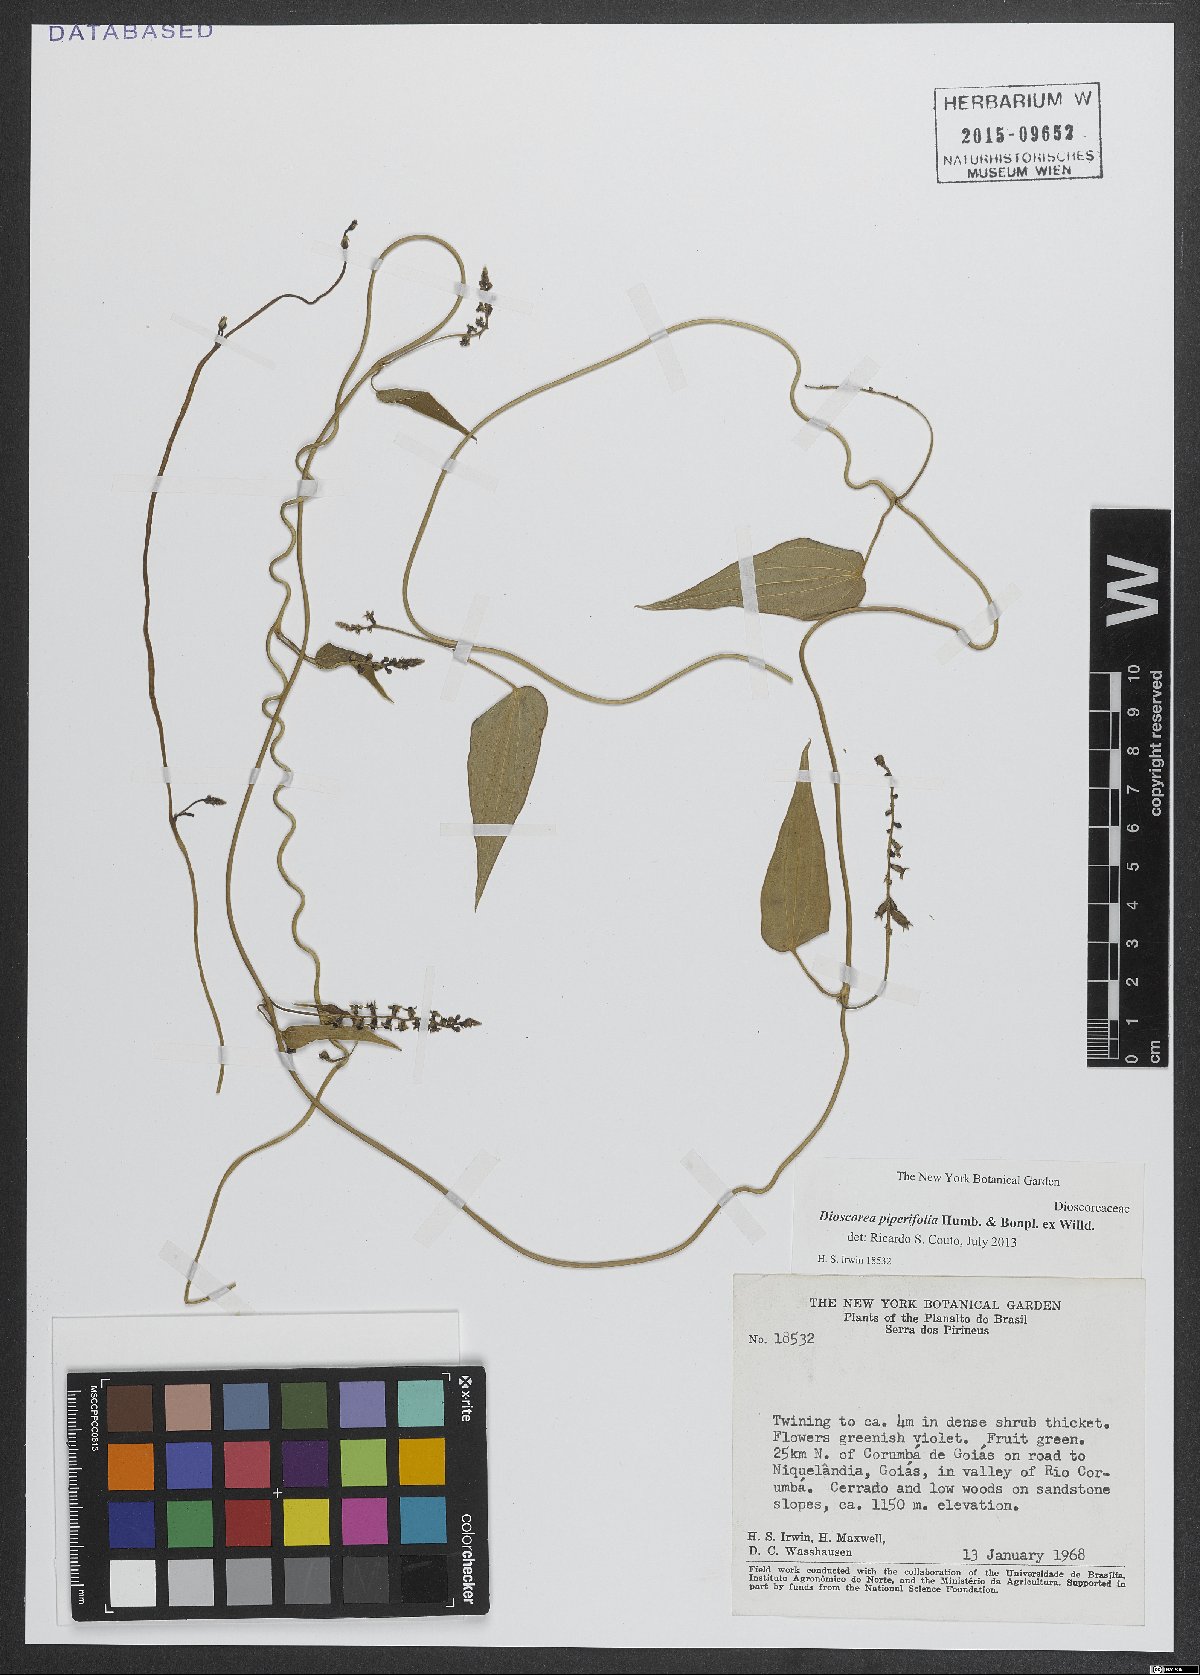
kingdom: Plantae
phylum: Tracheophyta
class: Liliopsida
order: Dioscoreales
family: Dioscoreaceae
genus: Dioscorea
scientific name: Dioscorea piperifolia
